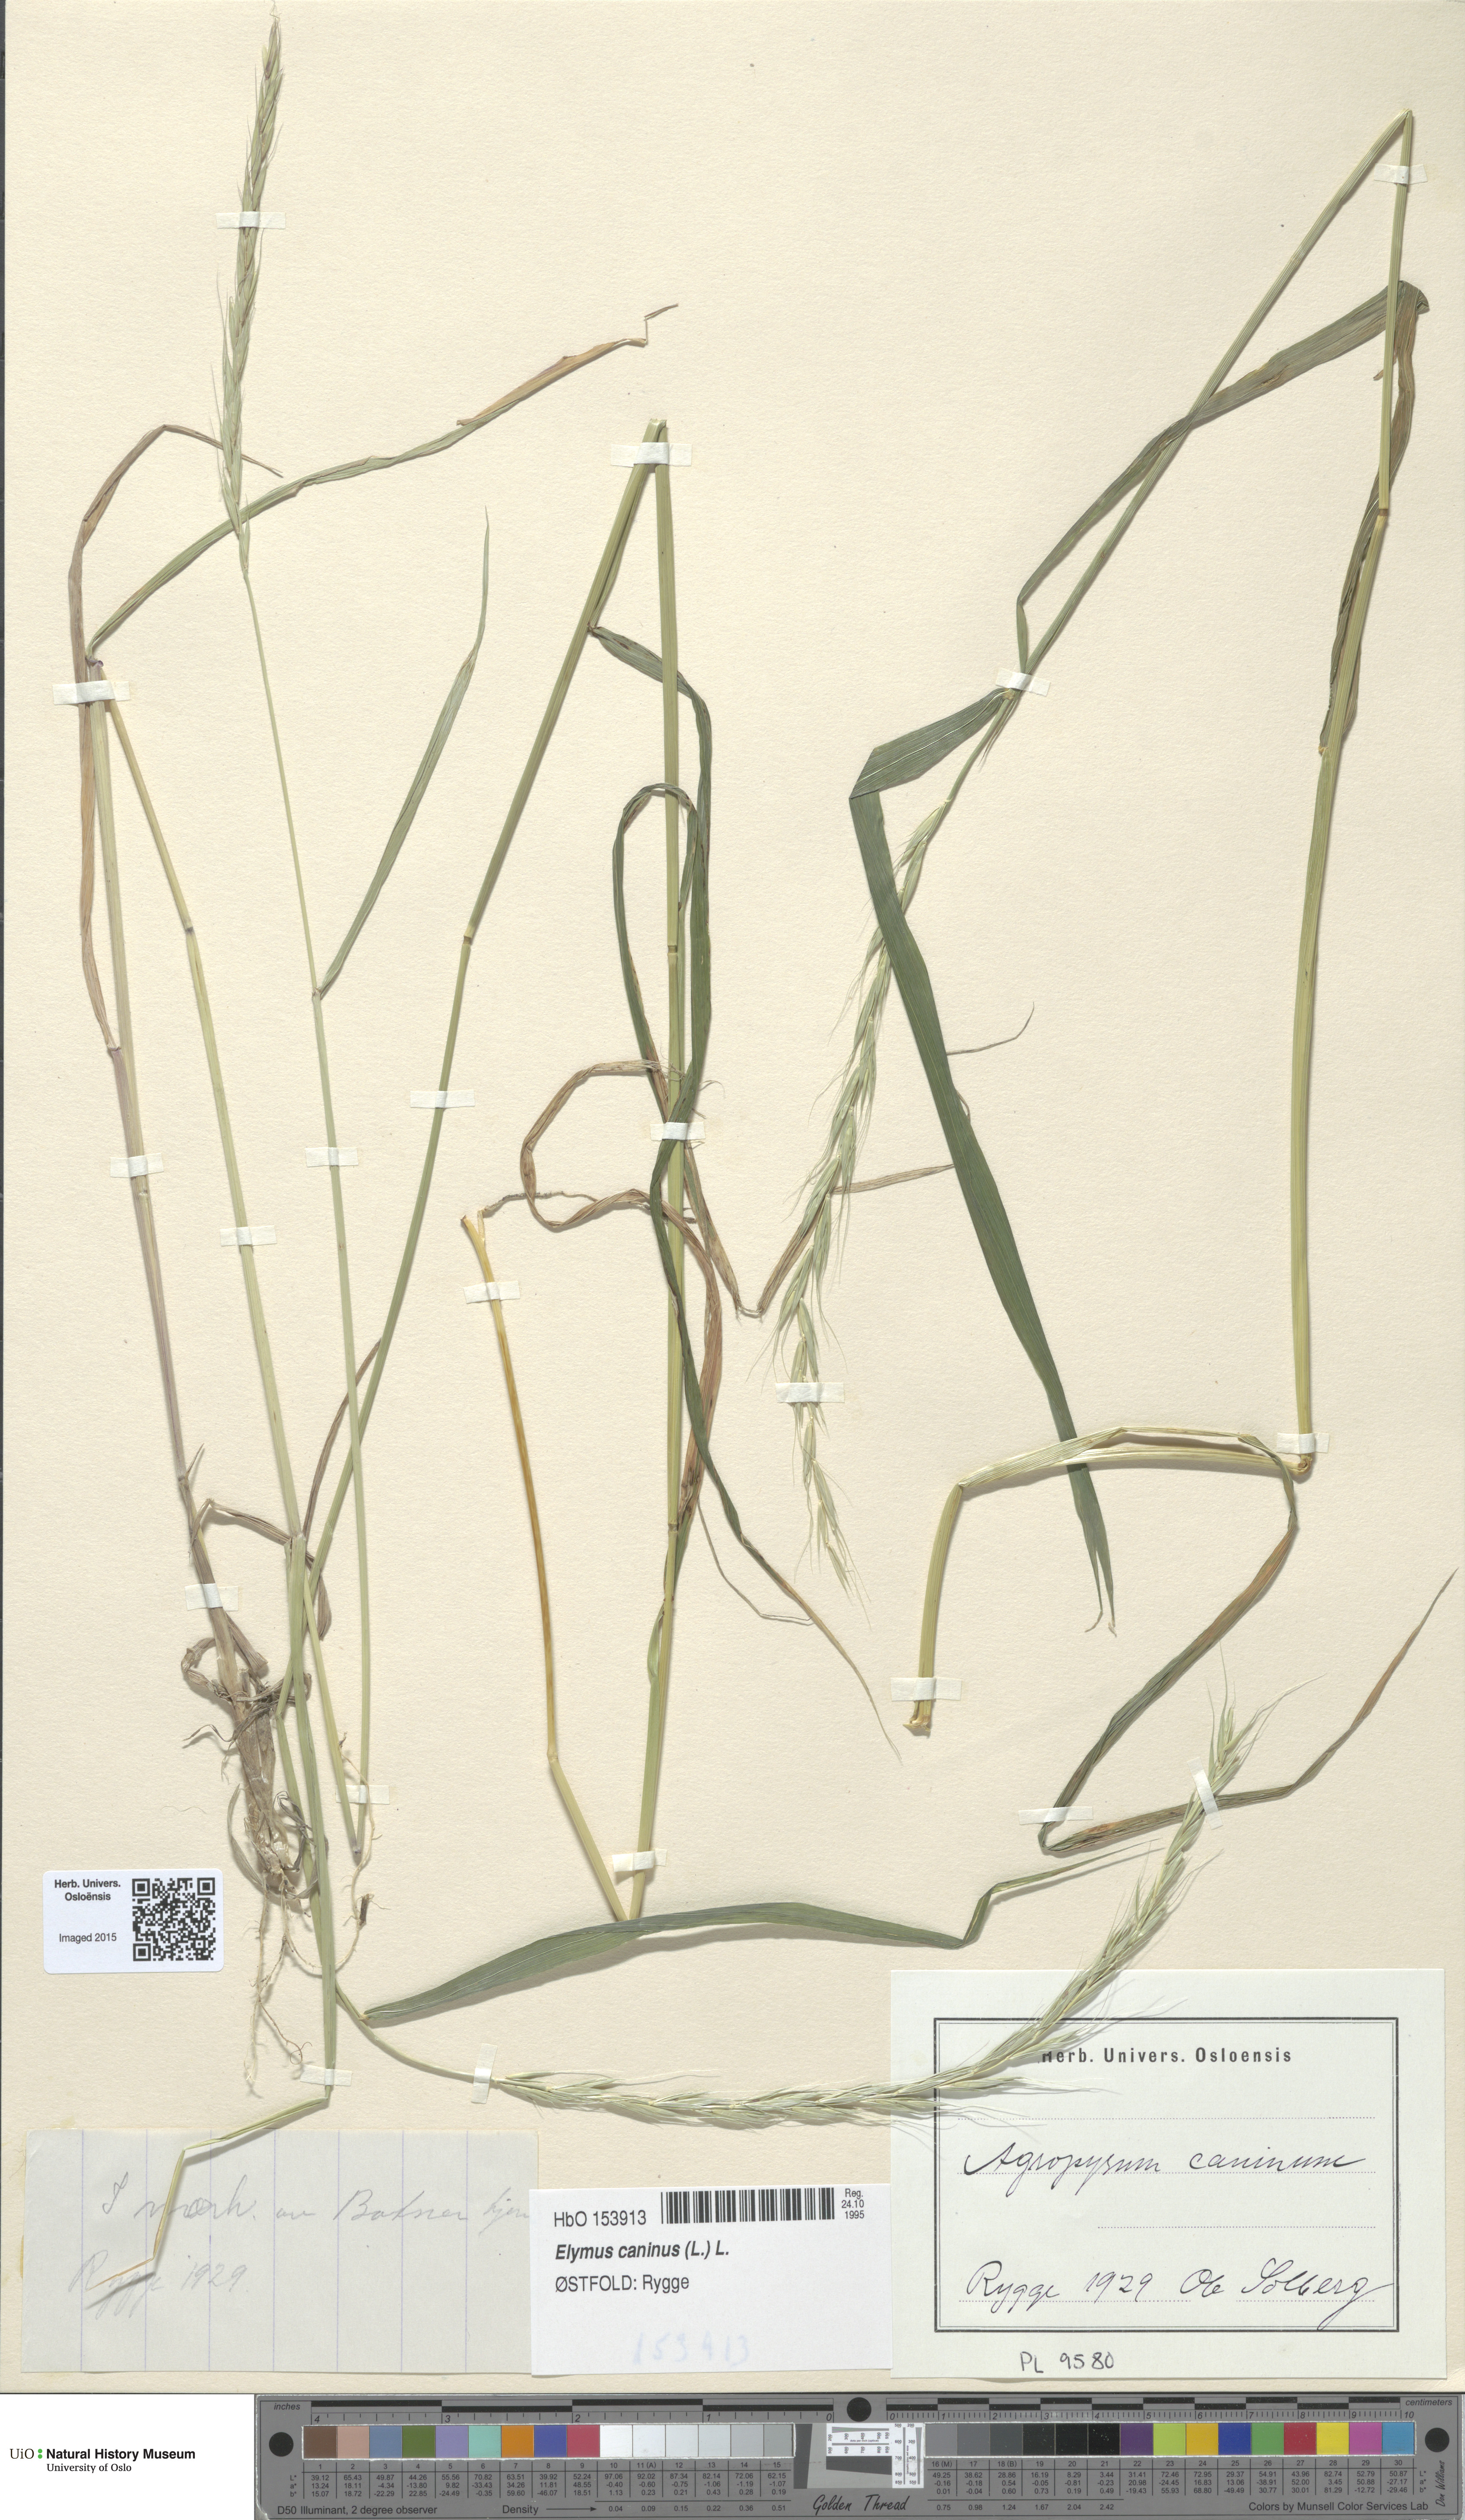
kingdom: Plantae
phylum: Tracheophyta
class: Liliopsida
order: Poales
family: Poaceae
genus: Elymus
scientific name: Elymus caninus
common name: Bearded couch
